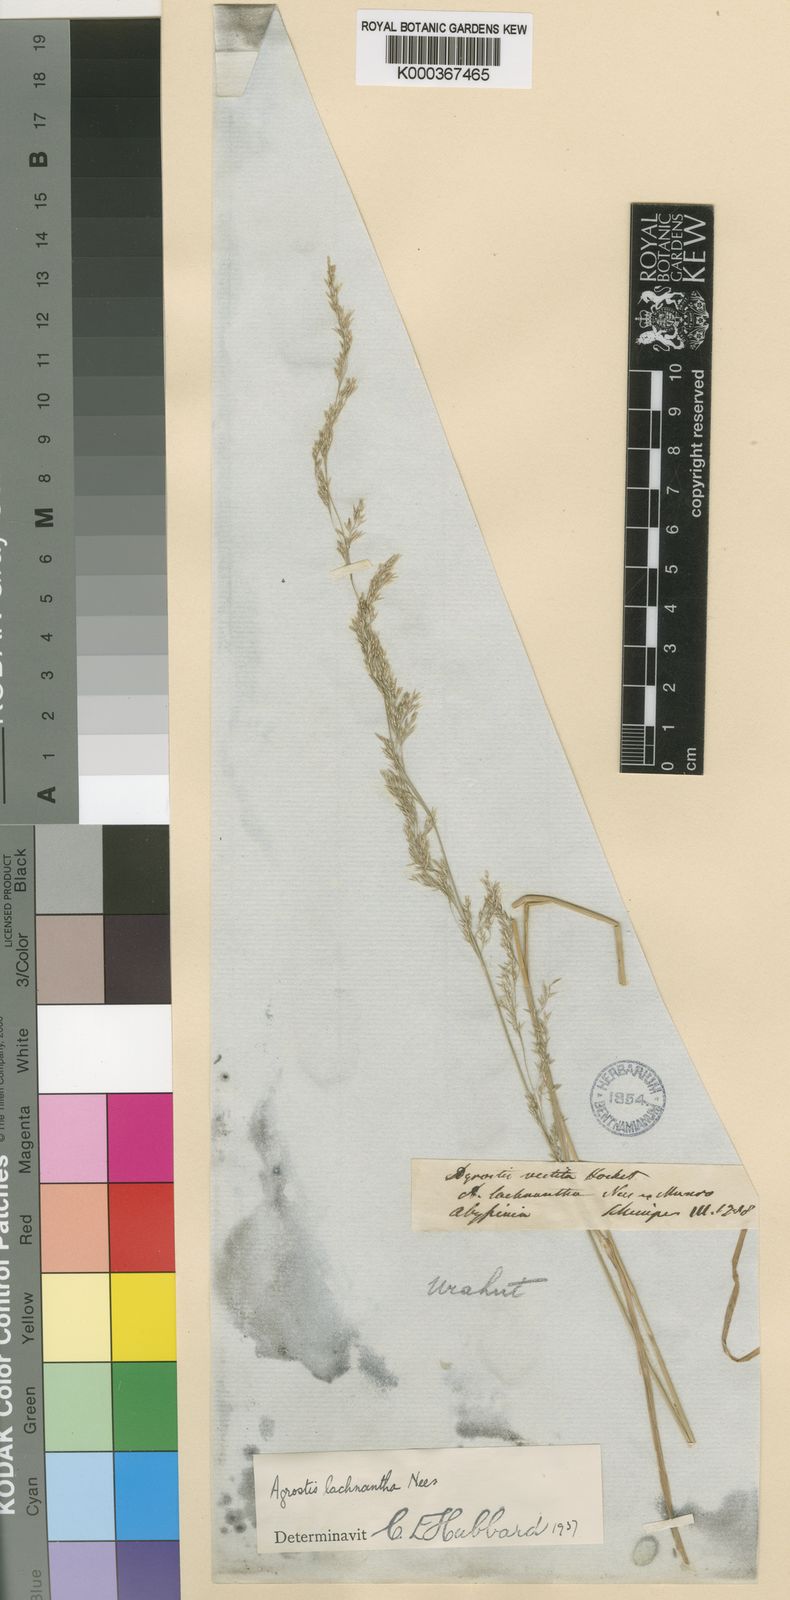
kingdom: Plantae
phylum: Tracheophyta
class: Liliopsida
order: Poales
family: Poaceae
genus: Lachnagrostis
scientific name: Lachnagrostis lachnantha
